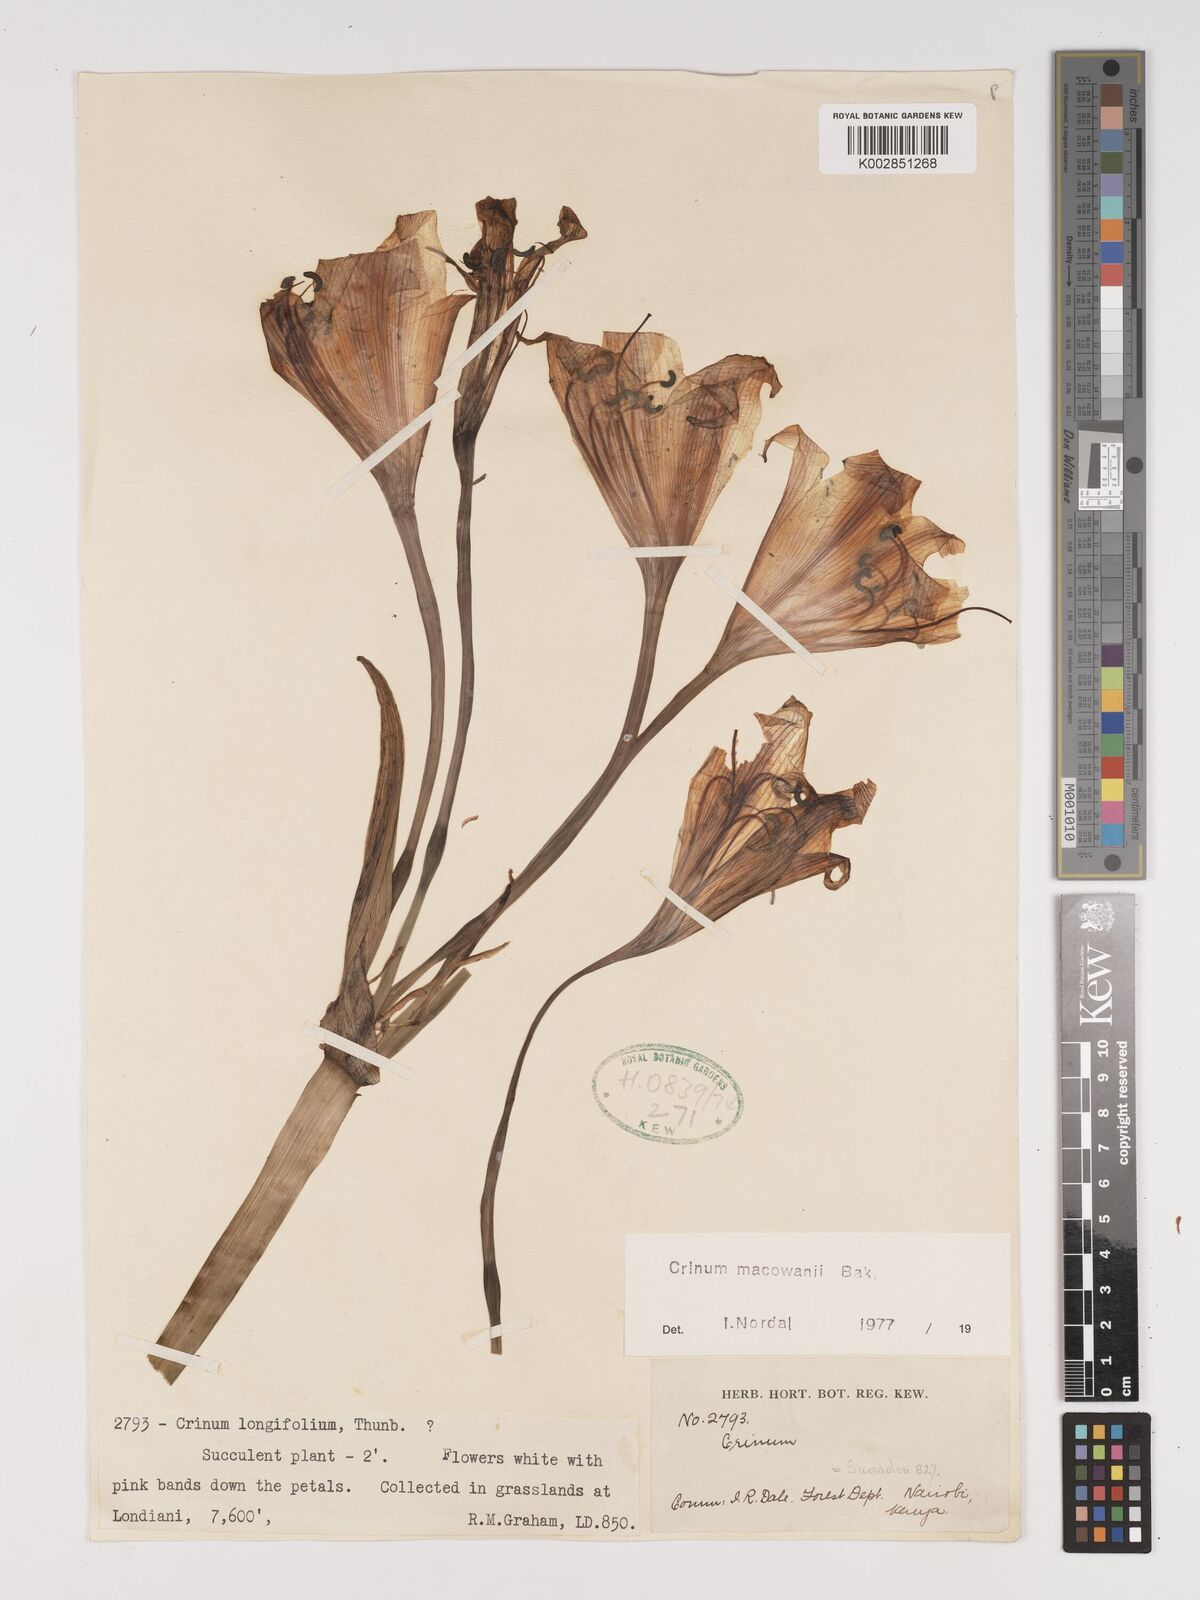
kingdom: Plantae
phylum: Tracheophyta
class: Liliopsida
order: Asparagales
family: Amaryllidaceae
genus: Crinum
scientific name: Crinum macowanii
